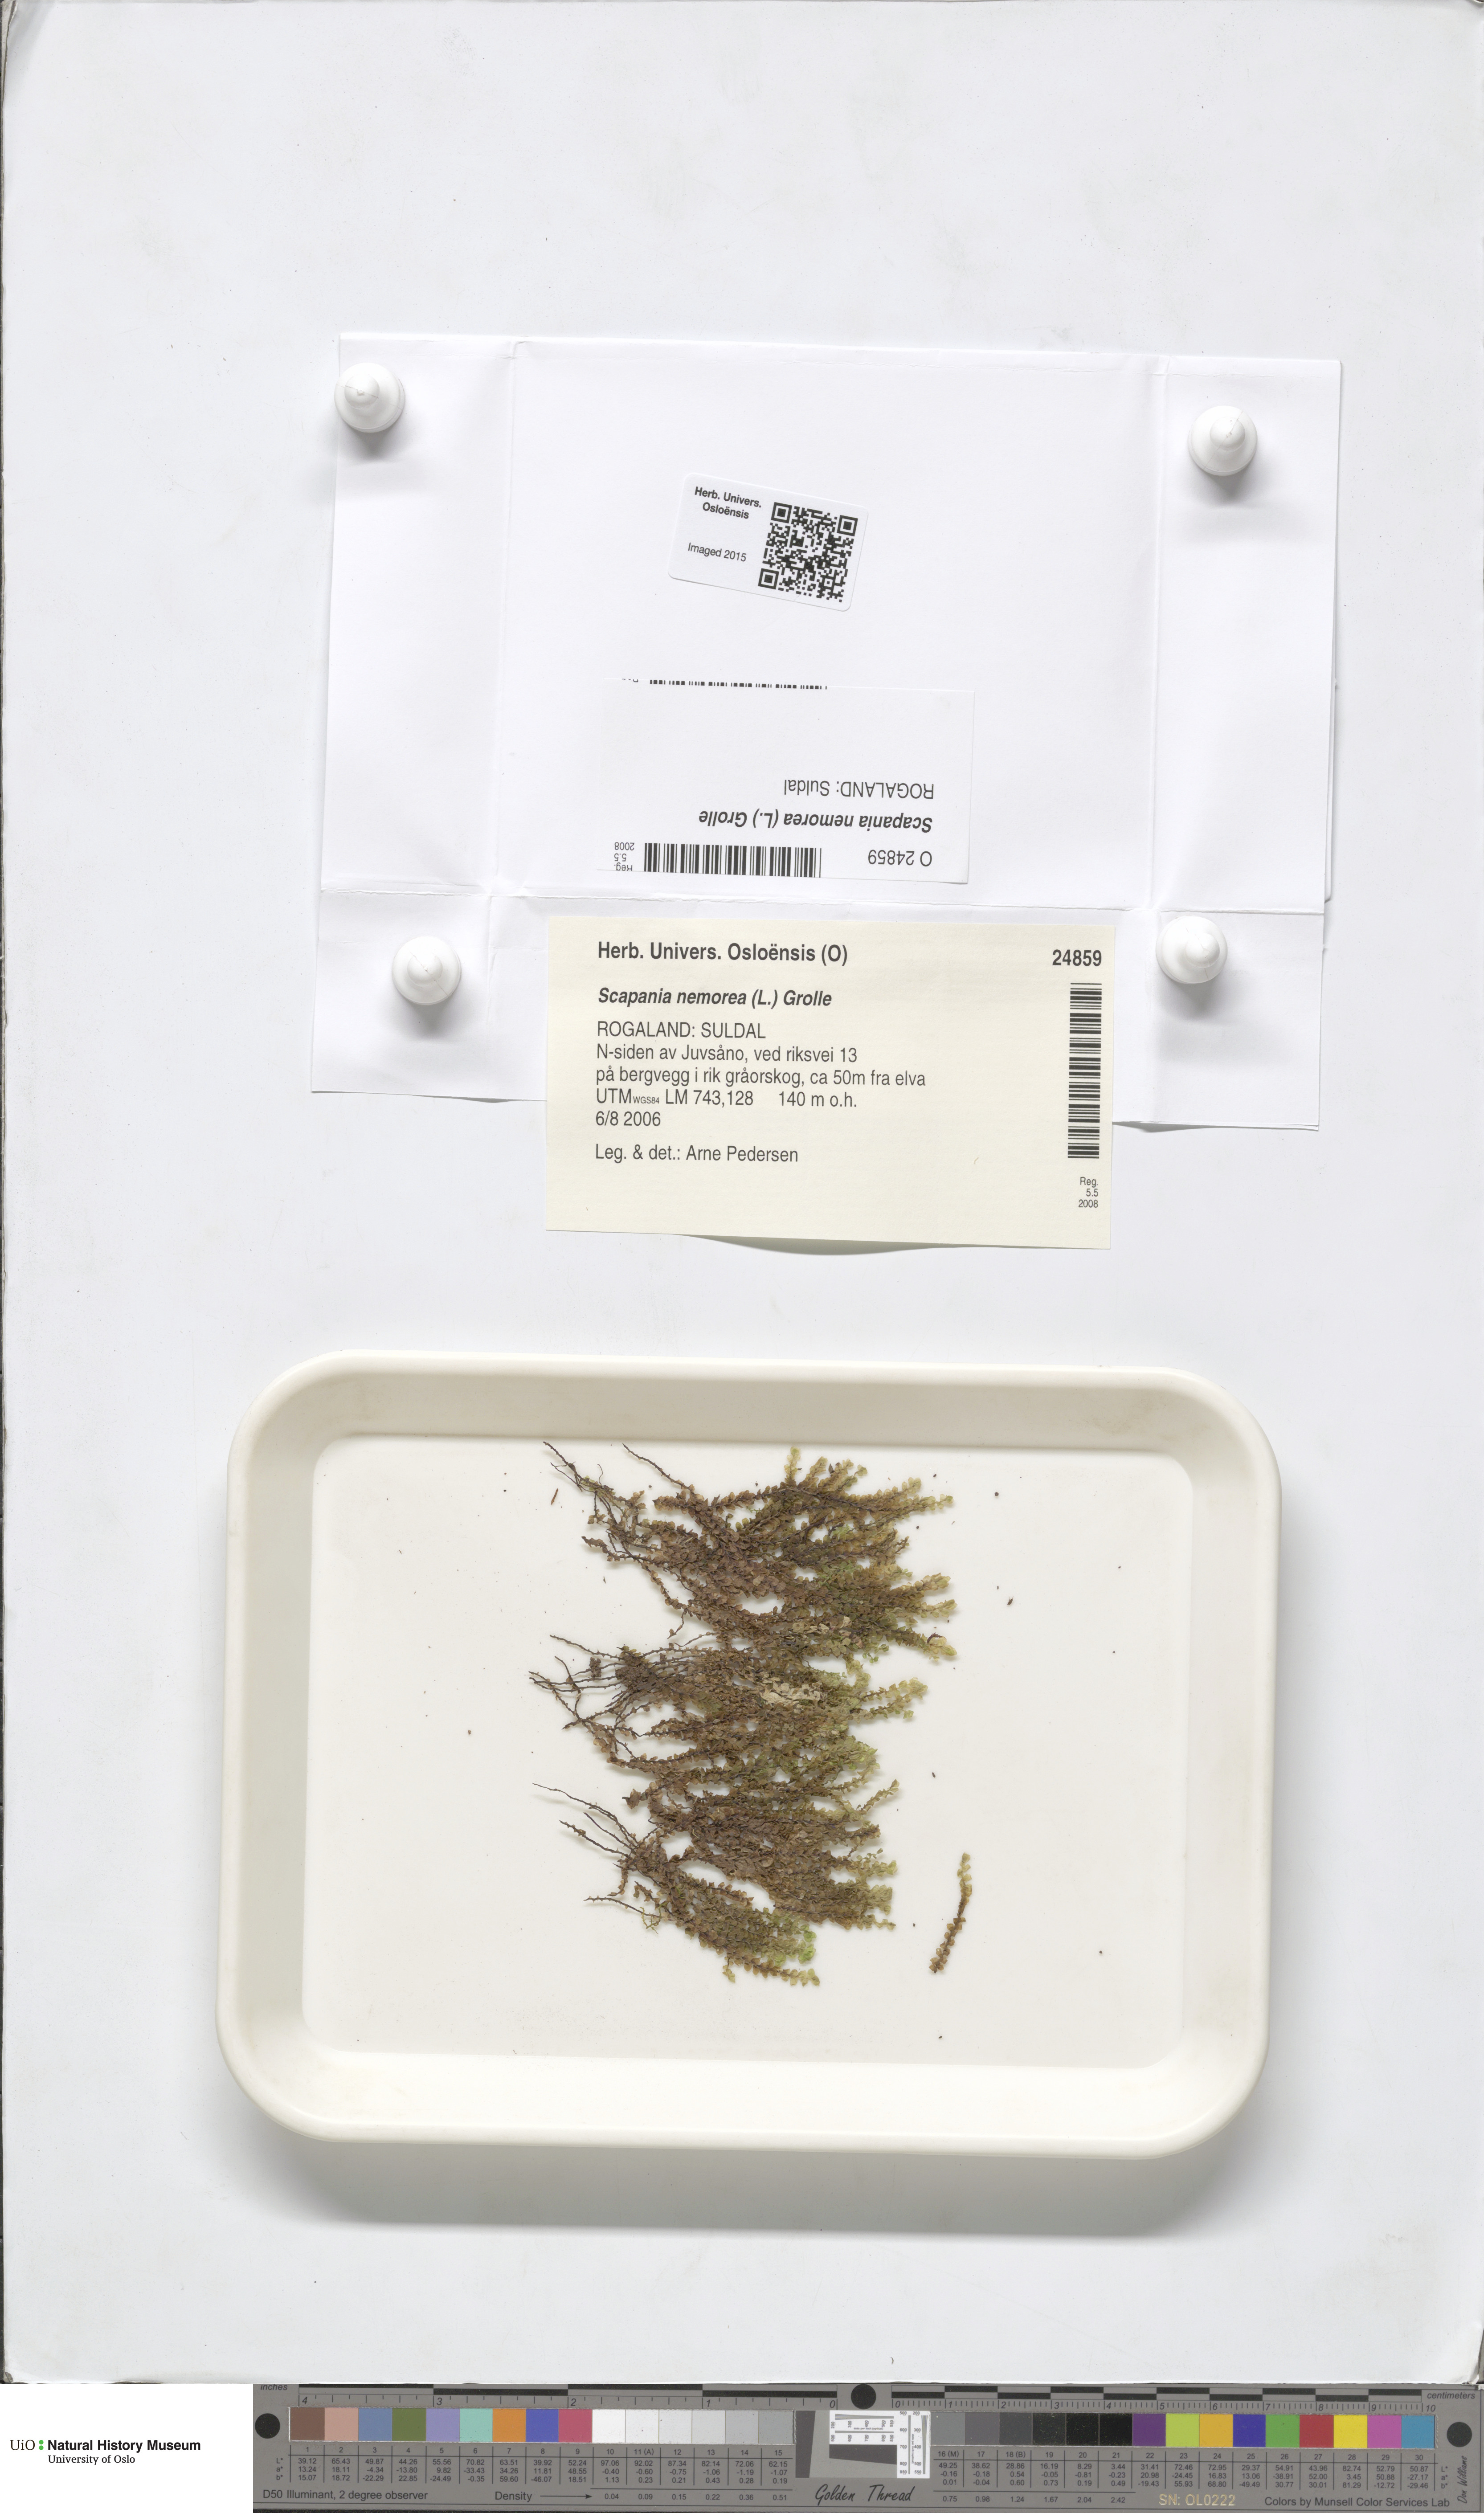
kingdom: Plantae
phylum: Marchantiophyta
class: Jungermanniopsida
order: Jungermanniales
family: Scapaniaceae
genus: Scapania
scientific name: Scapania nemorea
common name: Grove earwort
